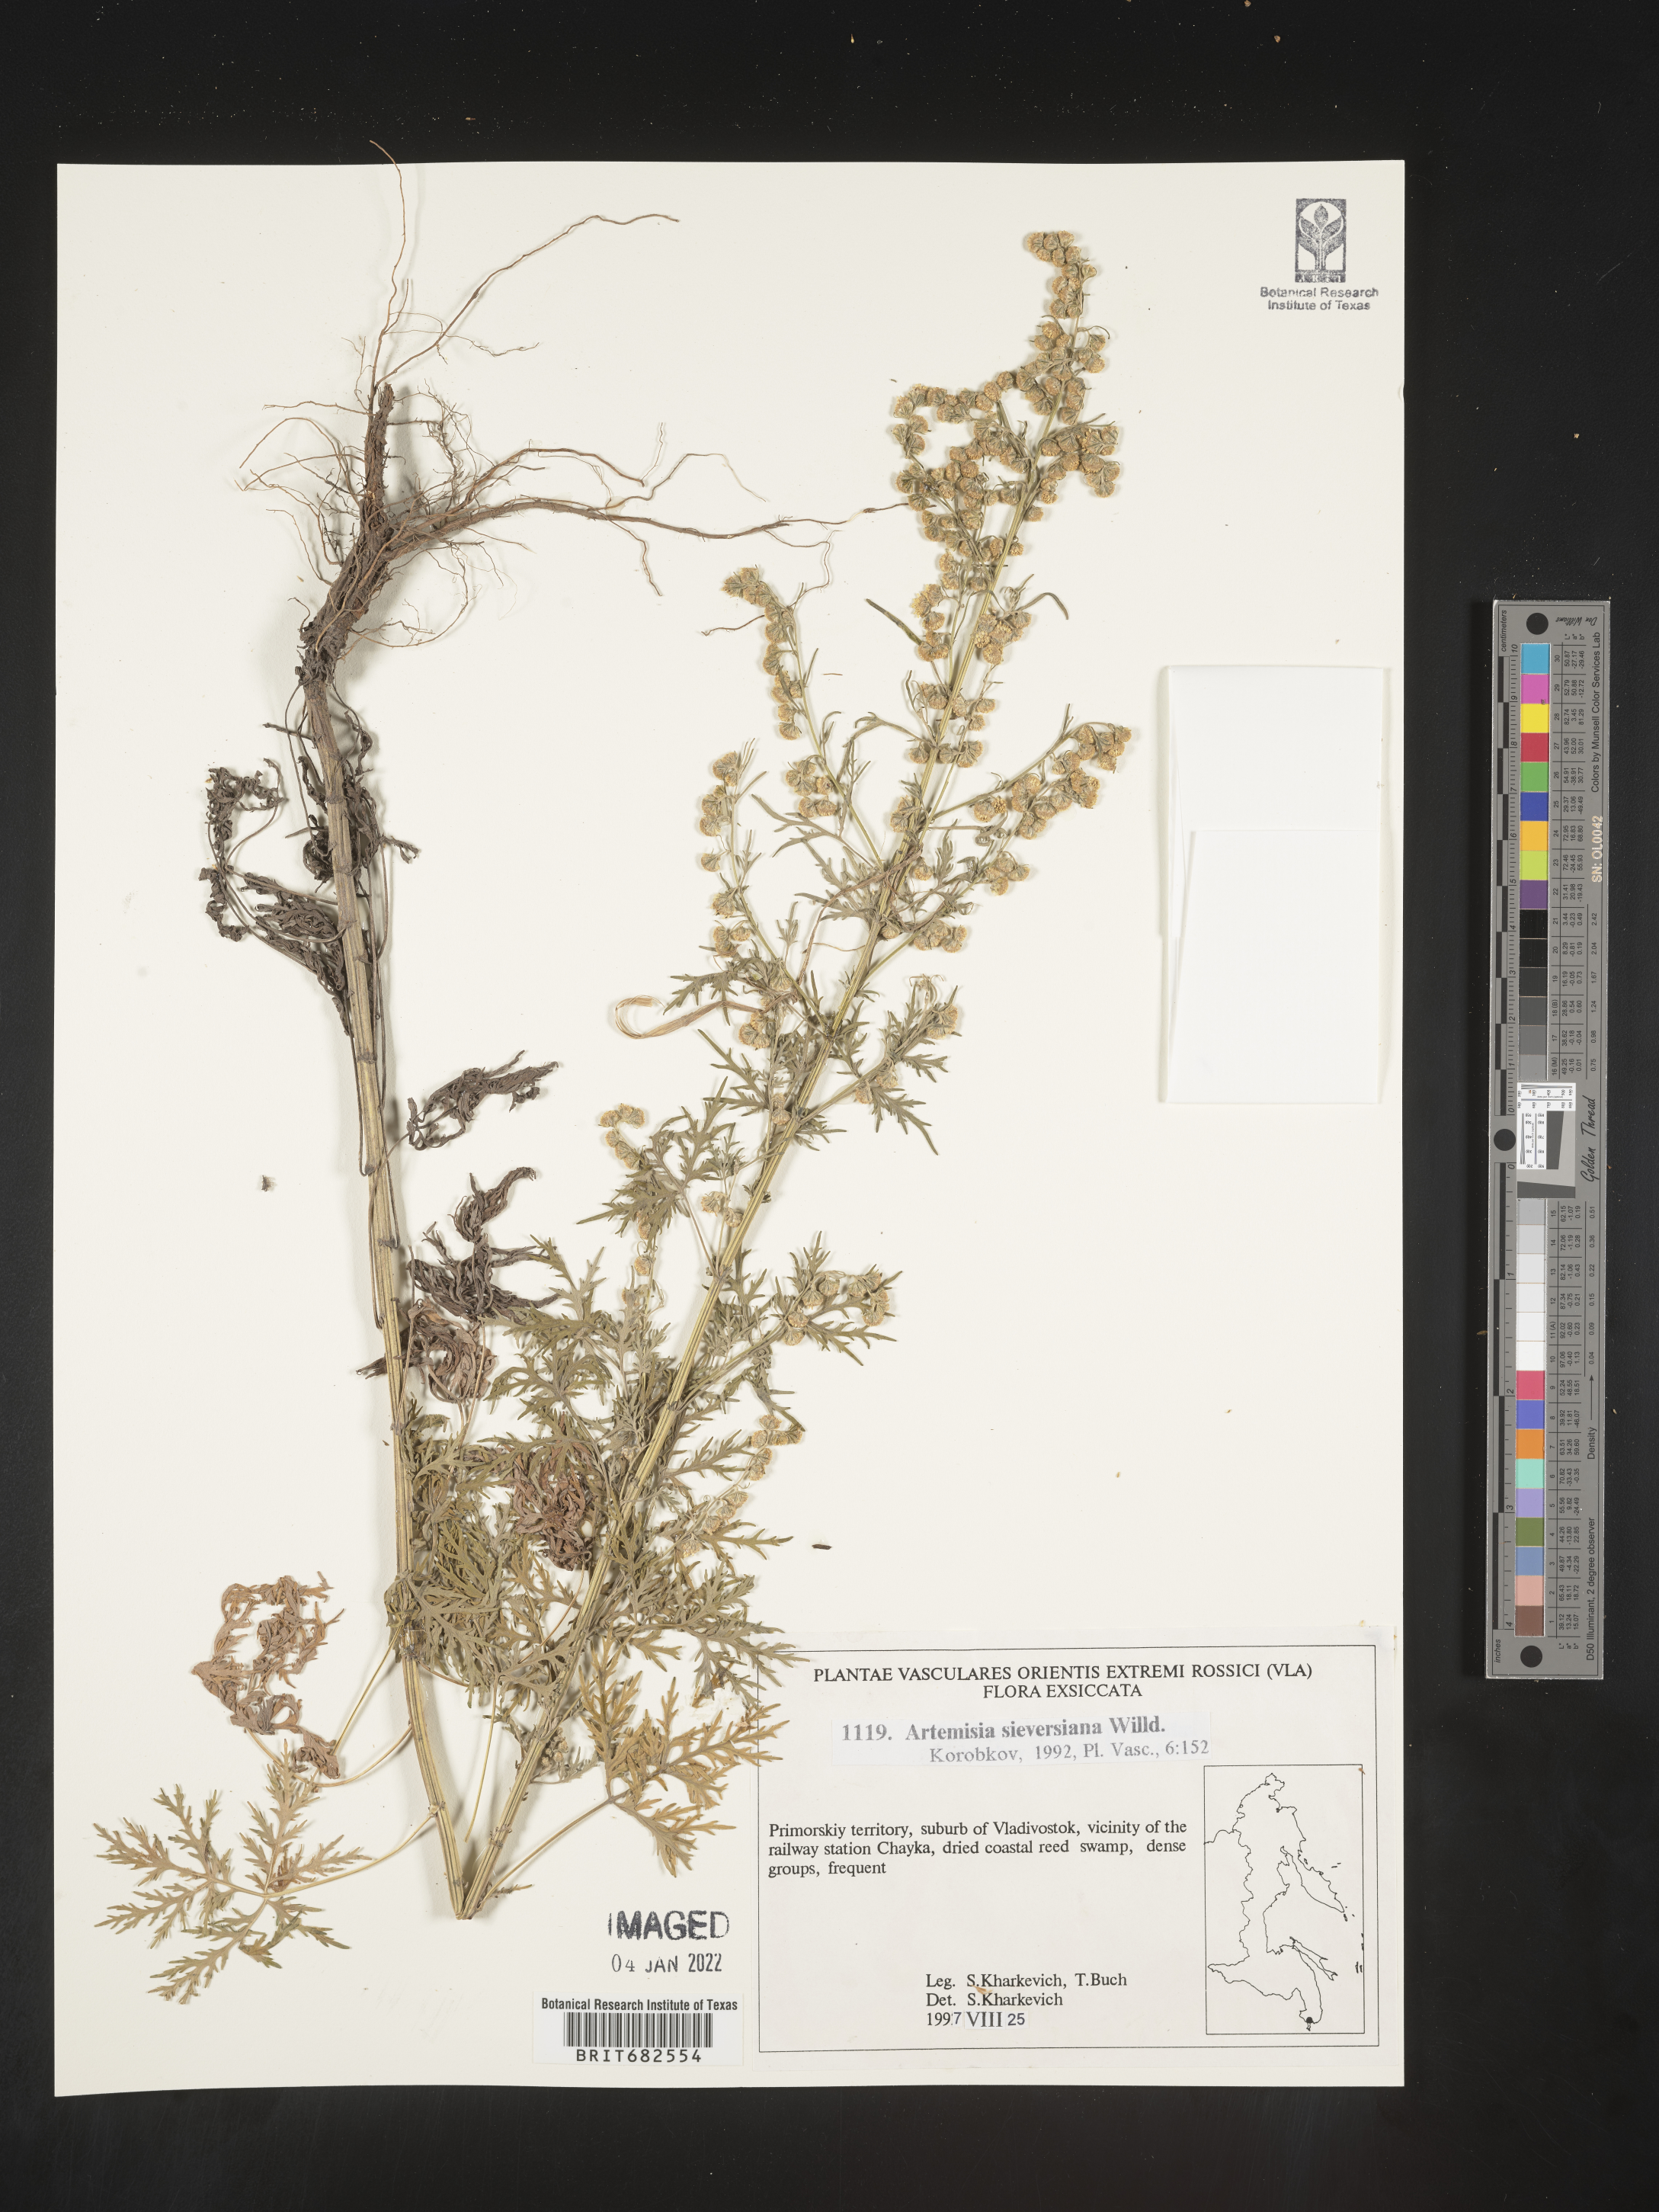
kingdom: Plantae
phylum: Tracheophyta
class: Magnoliopsida
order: Asterales
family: Asteraceae
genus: Artemisia
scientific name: Artemisia
